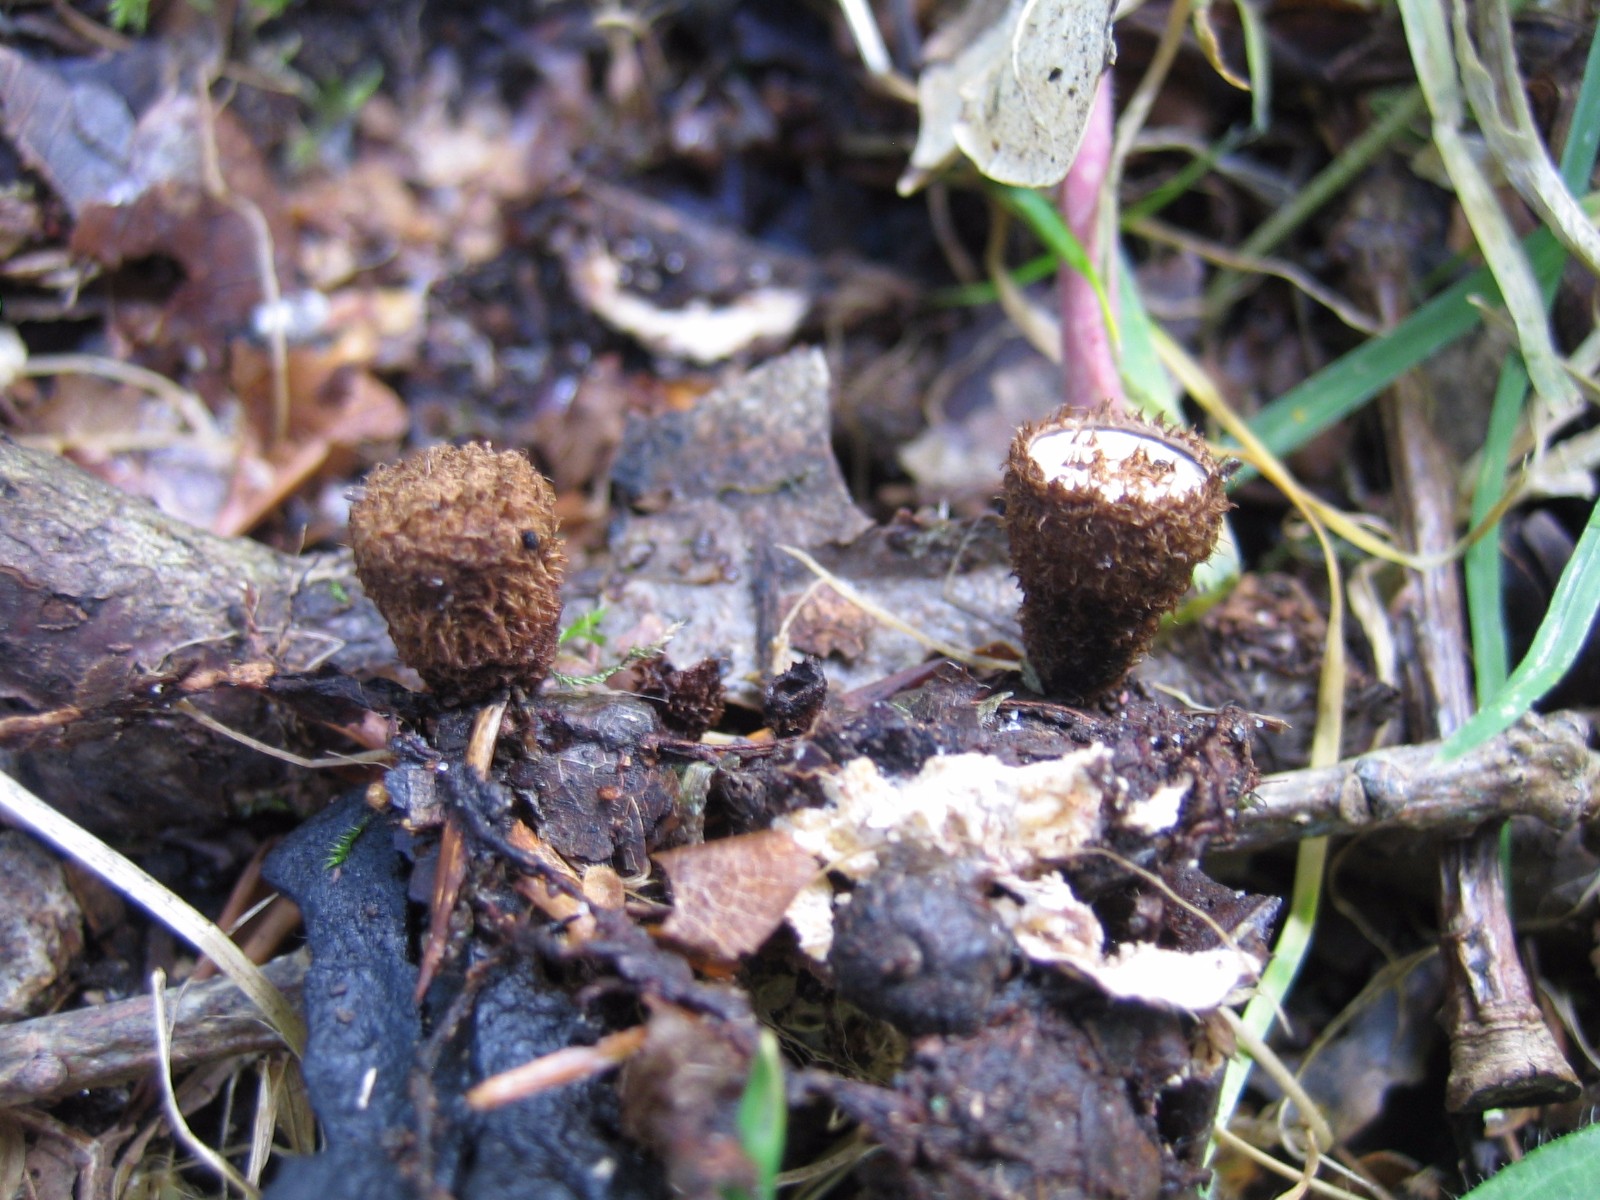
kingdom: Fungi
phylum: Basidiomycota
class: Agaricomycetes
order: Agaricales
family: Agaricaceae
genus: Cyathus
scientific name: Cyathus striatus
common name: stribet redesvamp
